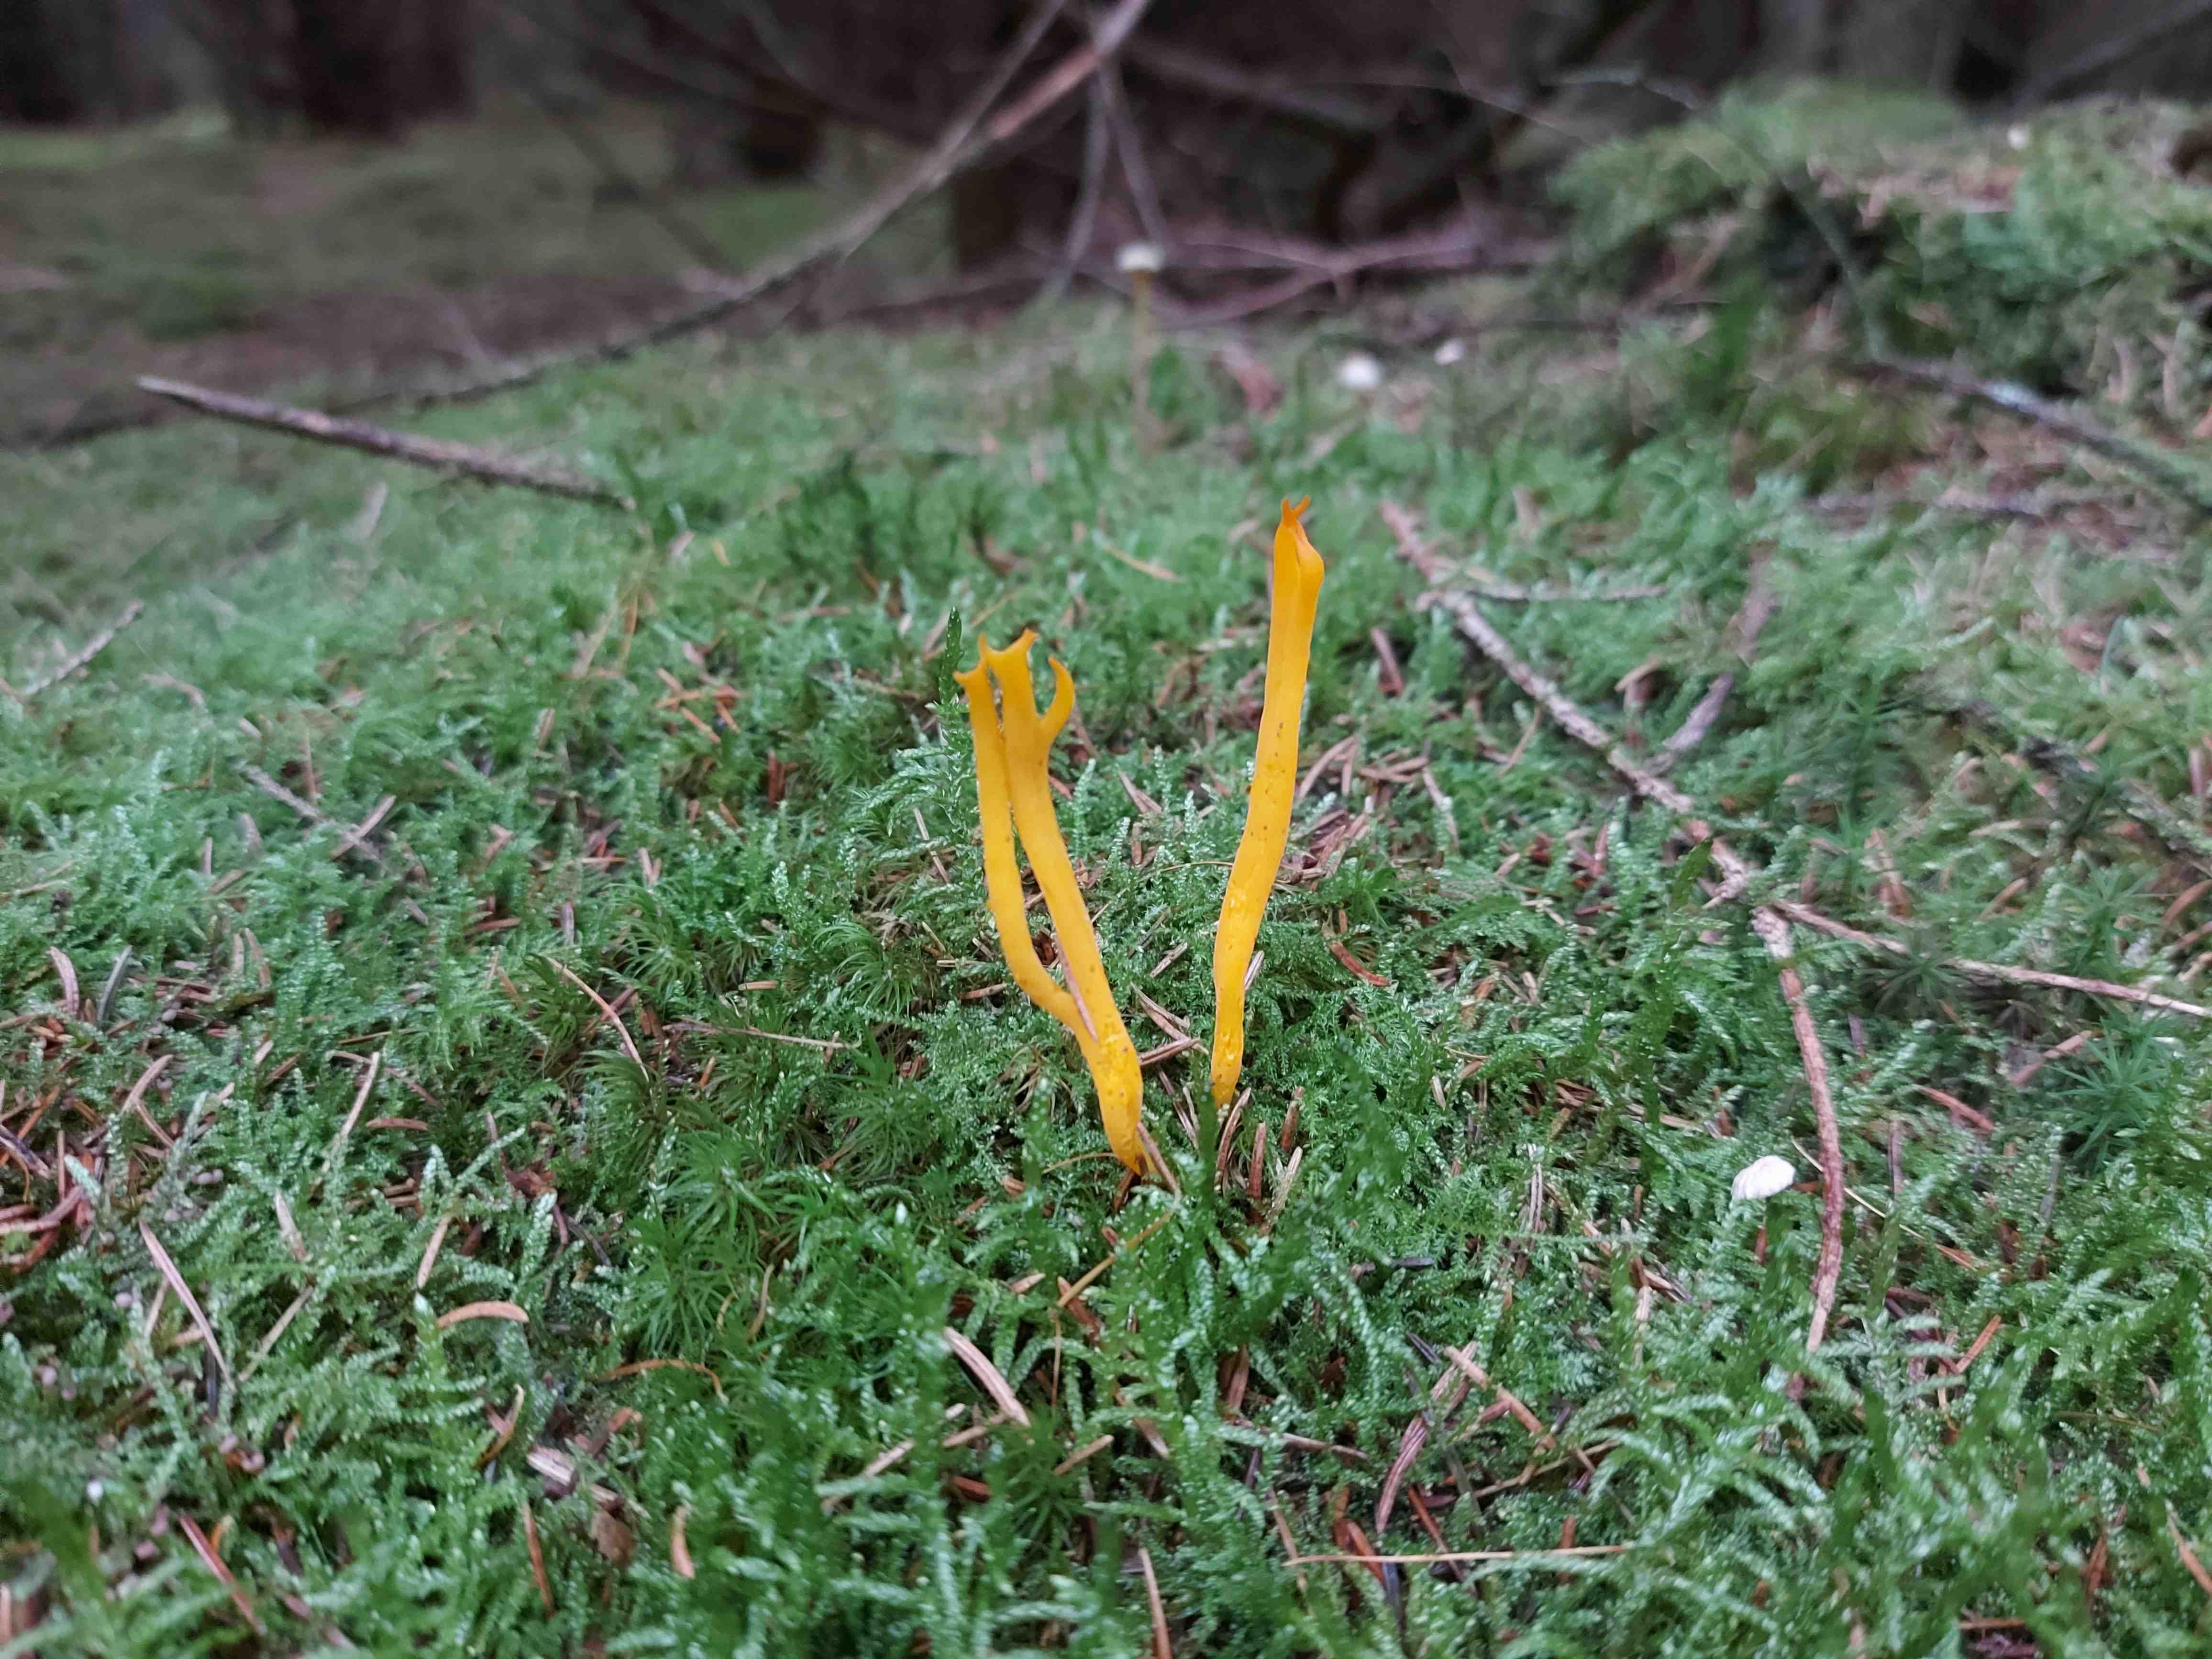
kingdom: Fungi
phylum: Basidiomycota
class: Dacrymycetes
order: Dacrymycetales
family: Dacrymycetaceae
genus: Calocera
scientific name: Calocera viscosa
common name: almindelig guldgaffel
